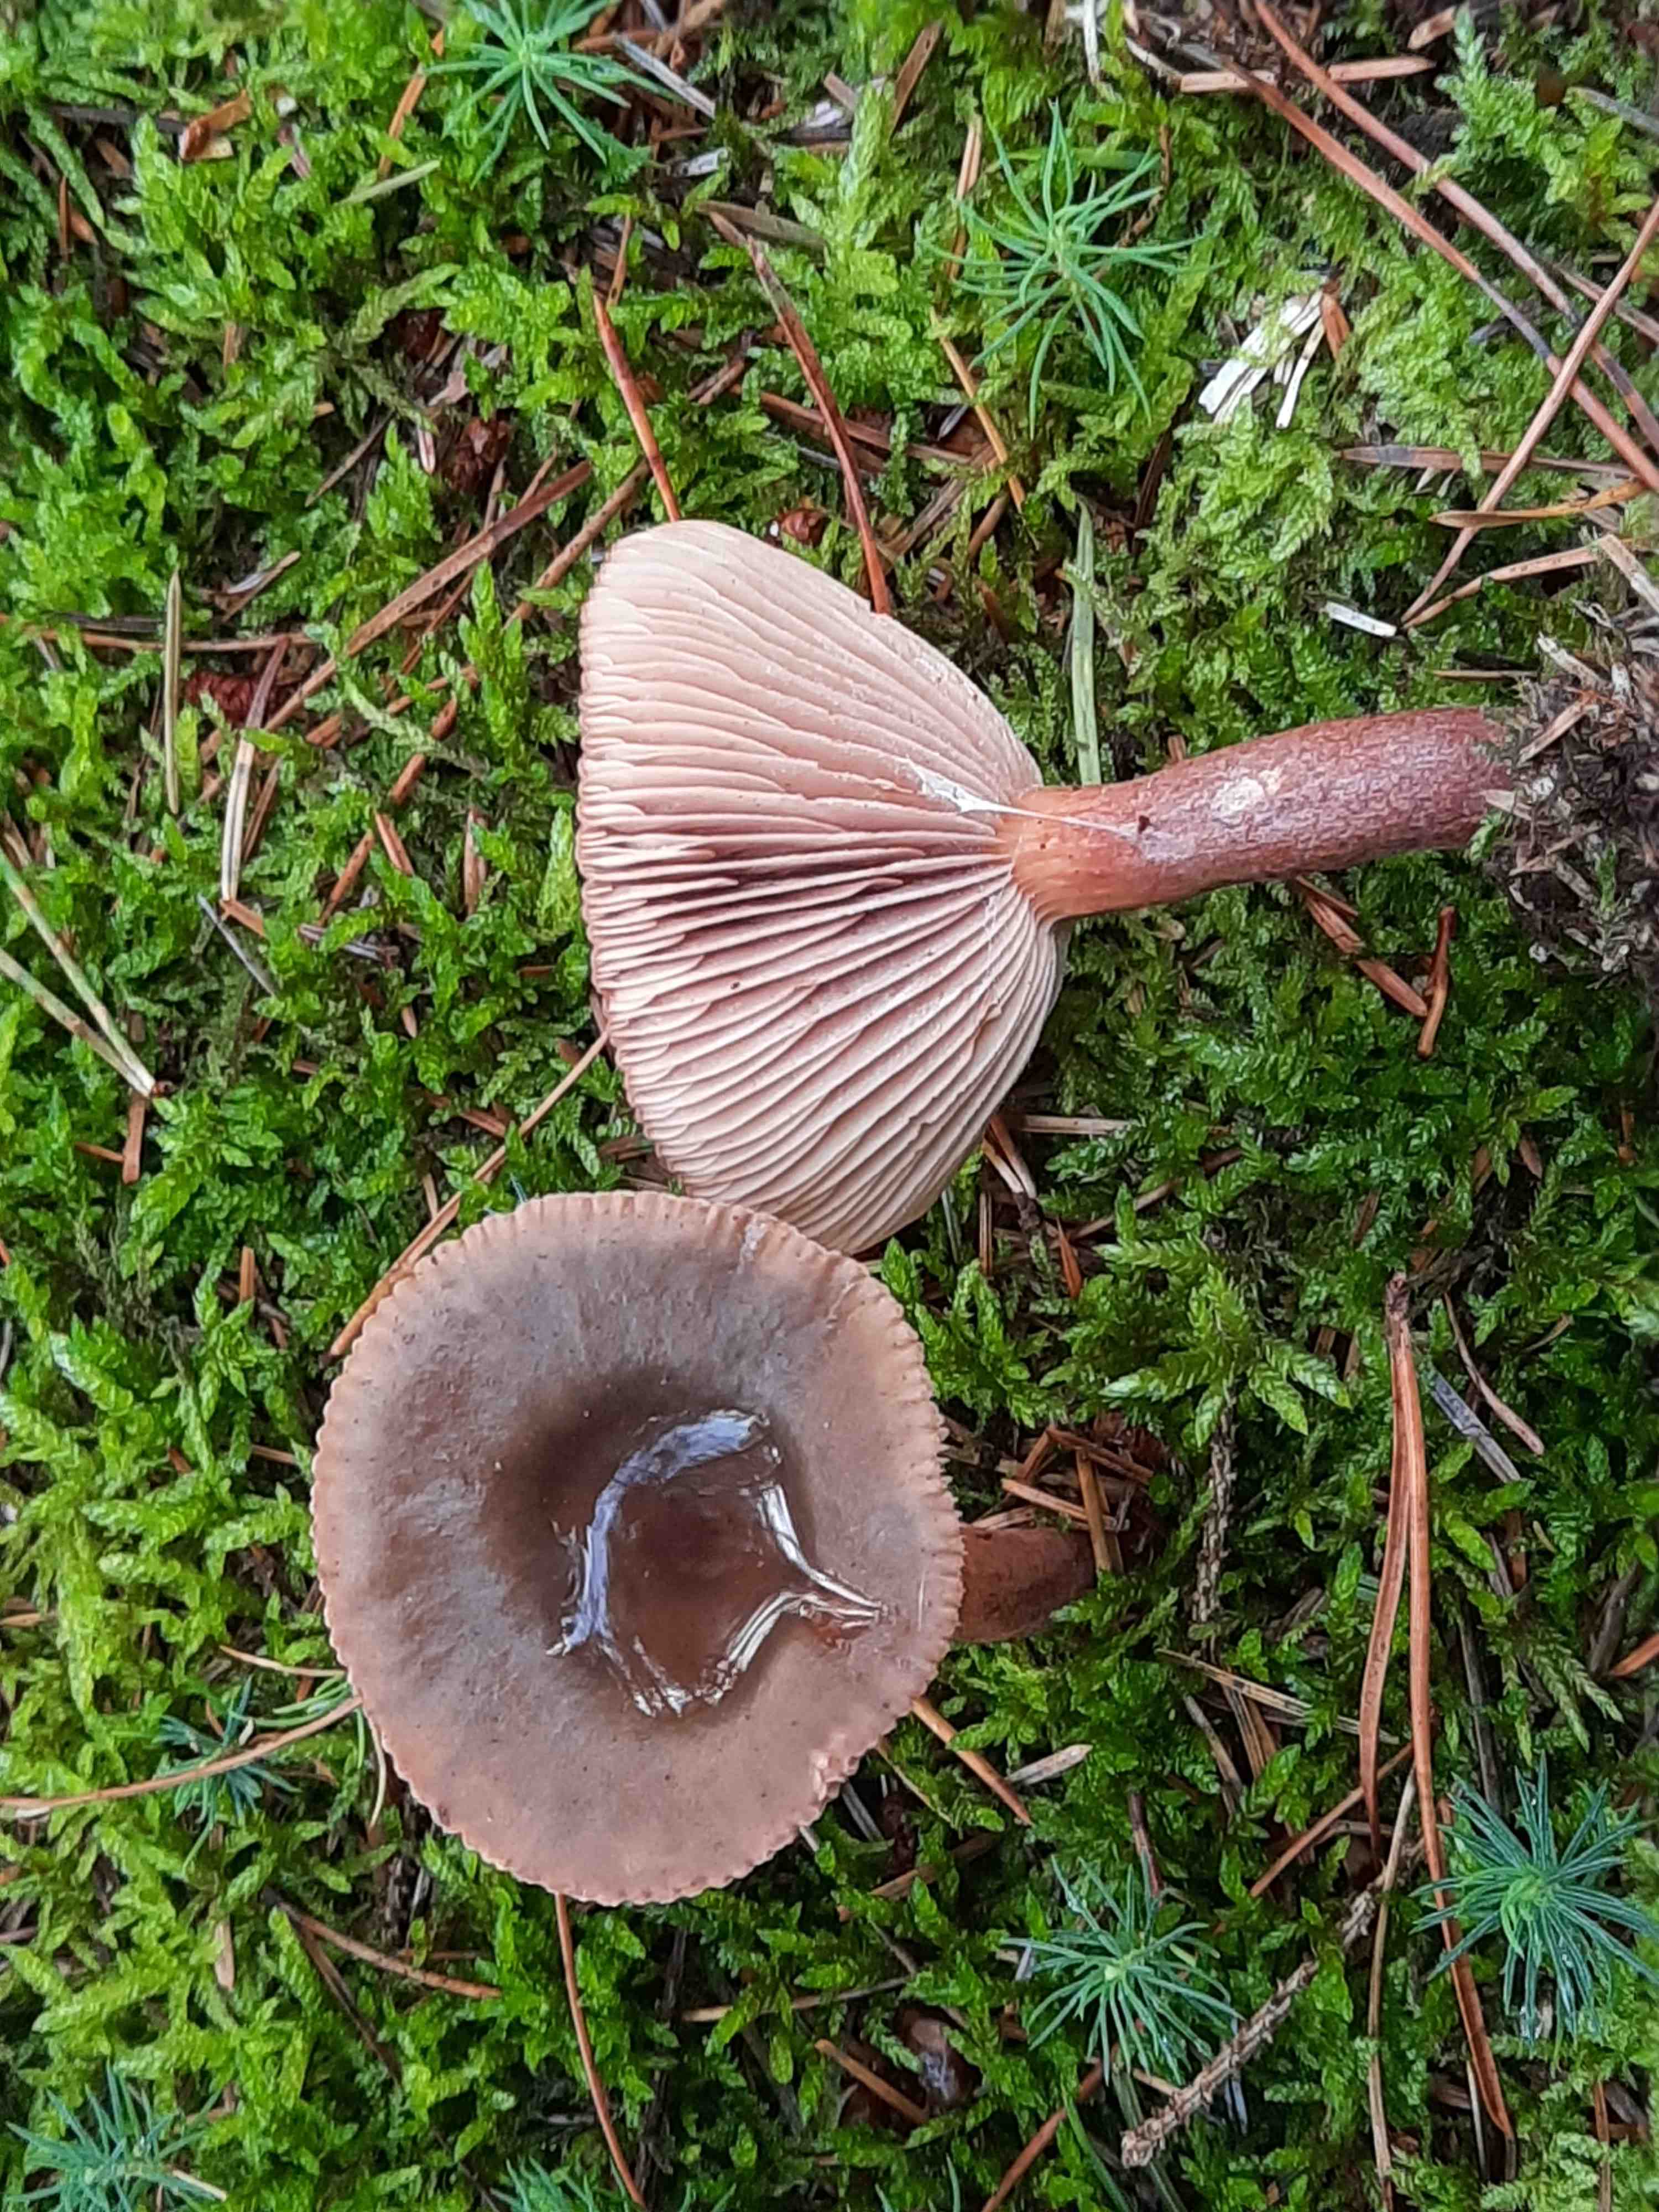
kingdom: Fungi
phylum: Basidiomycota
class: Agaricomycetes
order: Russulales
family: Russulaceae
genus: Lactarius
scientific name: Lactarius hepaticus
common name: leverbrun mælkehat
